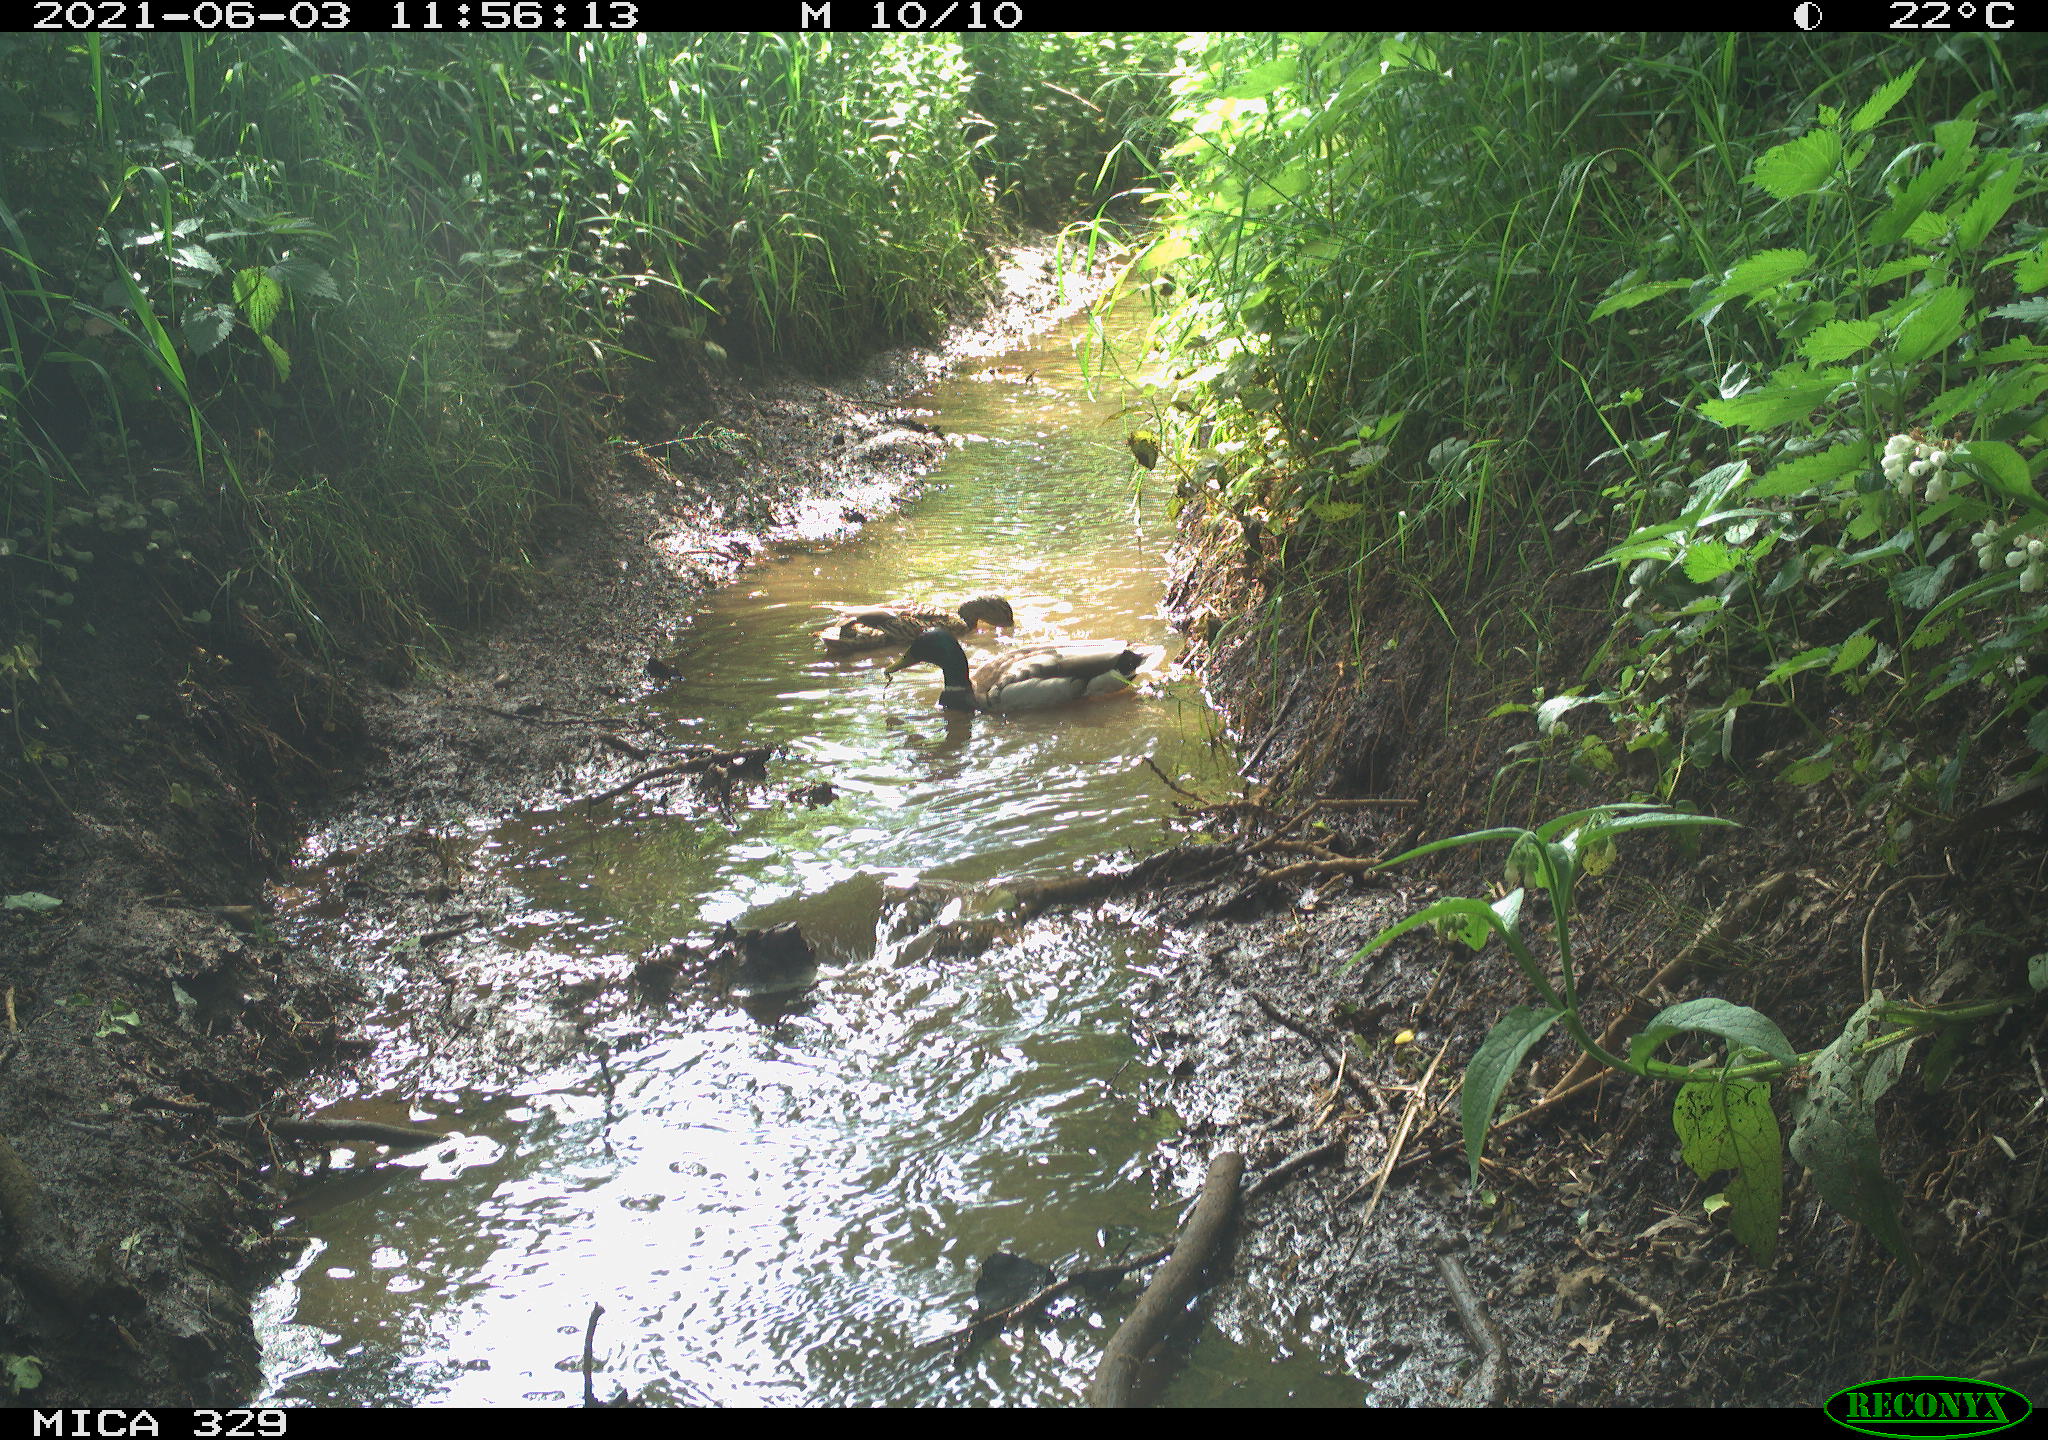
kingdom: Animalia
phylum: Chordata
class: Aves
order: Anseriformes
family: Anatidae
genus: Anas
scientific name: Anas platyrhynchos
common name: Mallard
